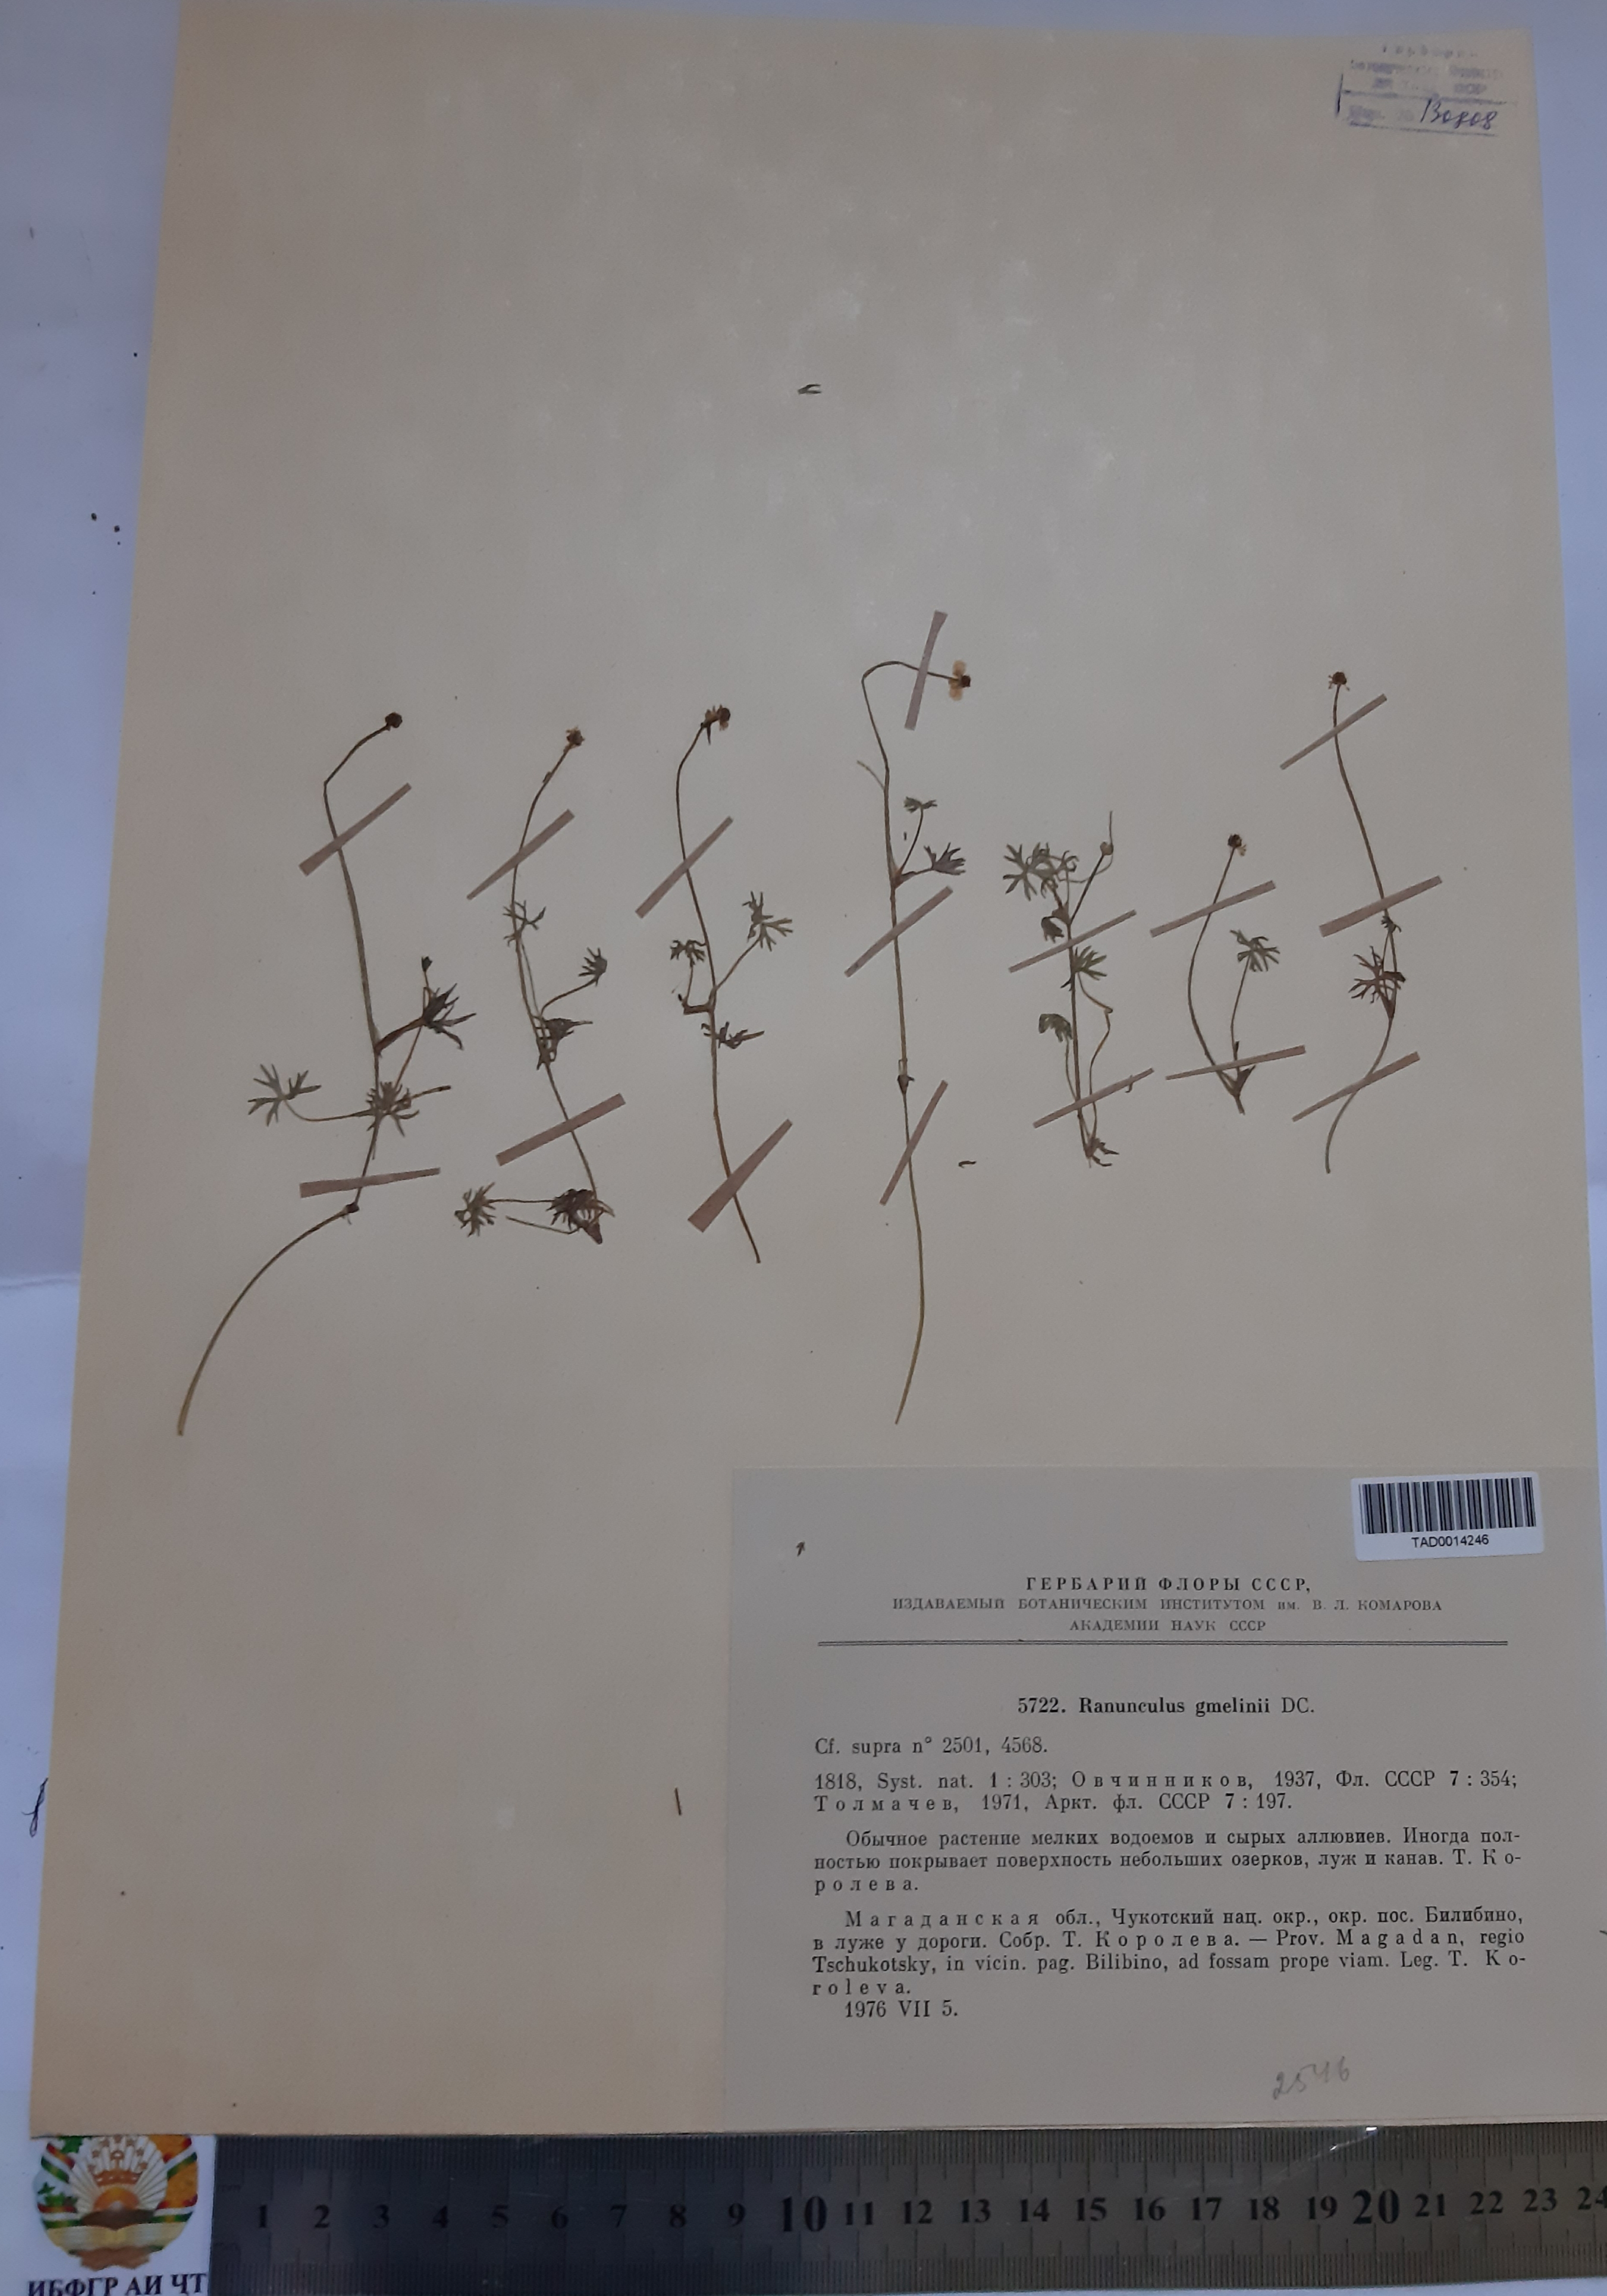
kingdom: Plantae
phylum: Tracheophyta
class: Magnoliopsida
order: Ranunculales
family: Ranunculaceae
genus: Ranunculus
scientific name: Ranunculus gmelinii
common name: Gmelin's buttercup
